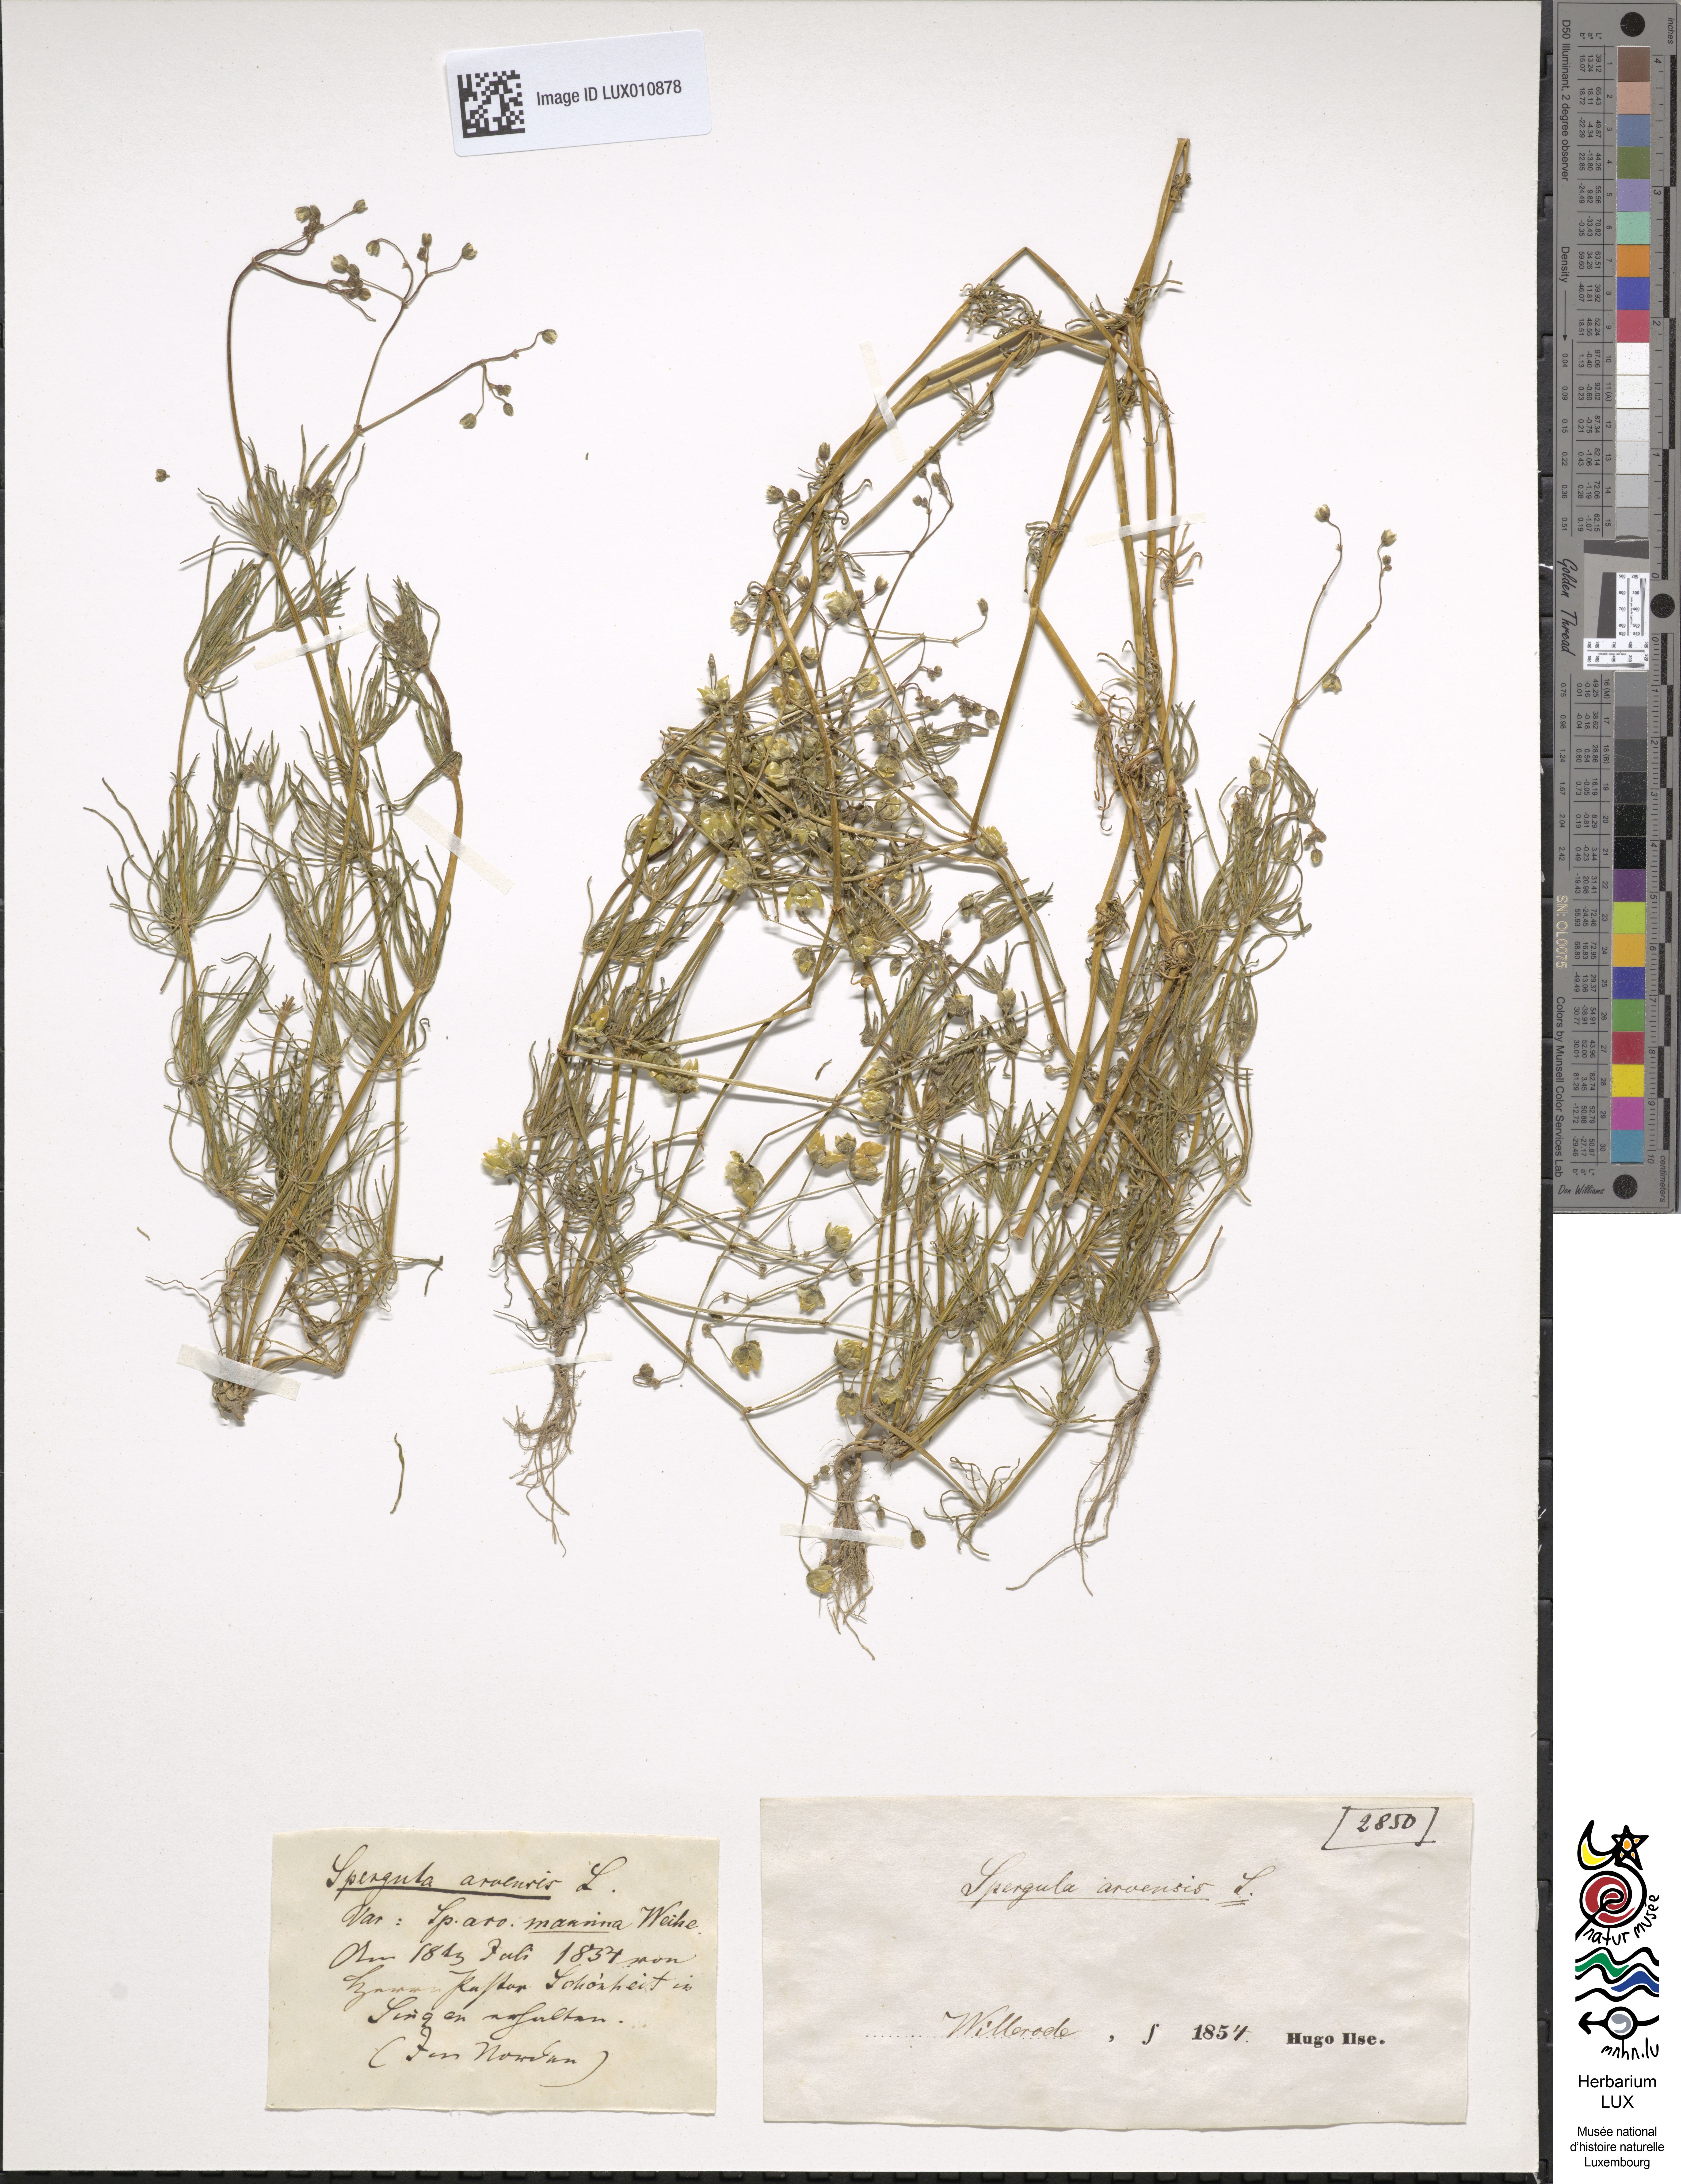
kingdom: Plantae
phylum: Tracheophyta
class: Magnoliopsida
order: Caryophyllales
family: Caryophyllaceae
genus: Spergula
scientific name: Spergula arvensis
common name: Corn spurrey
